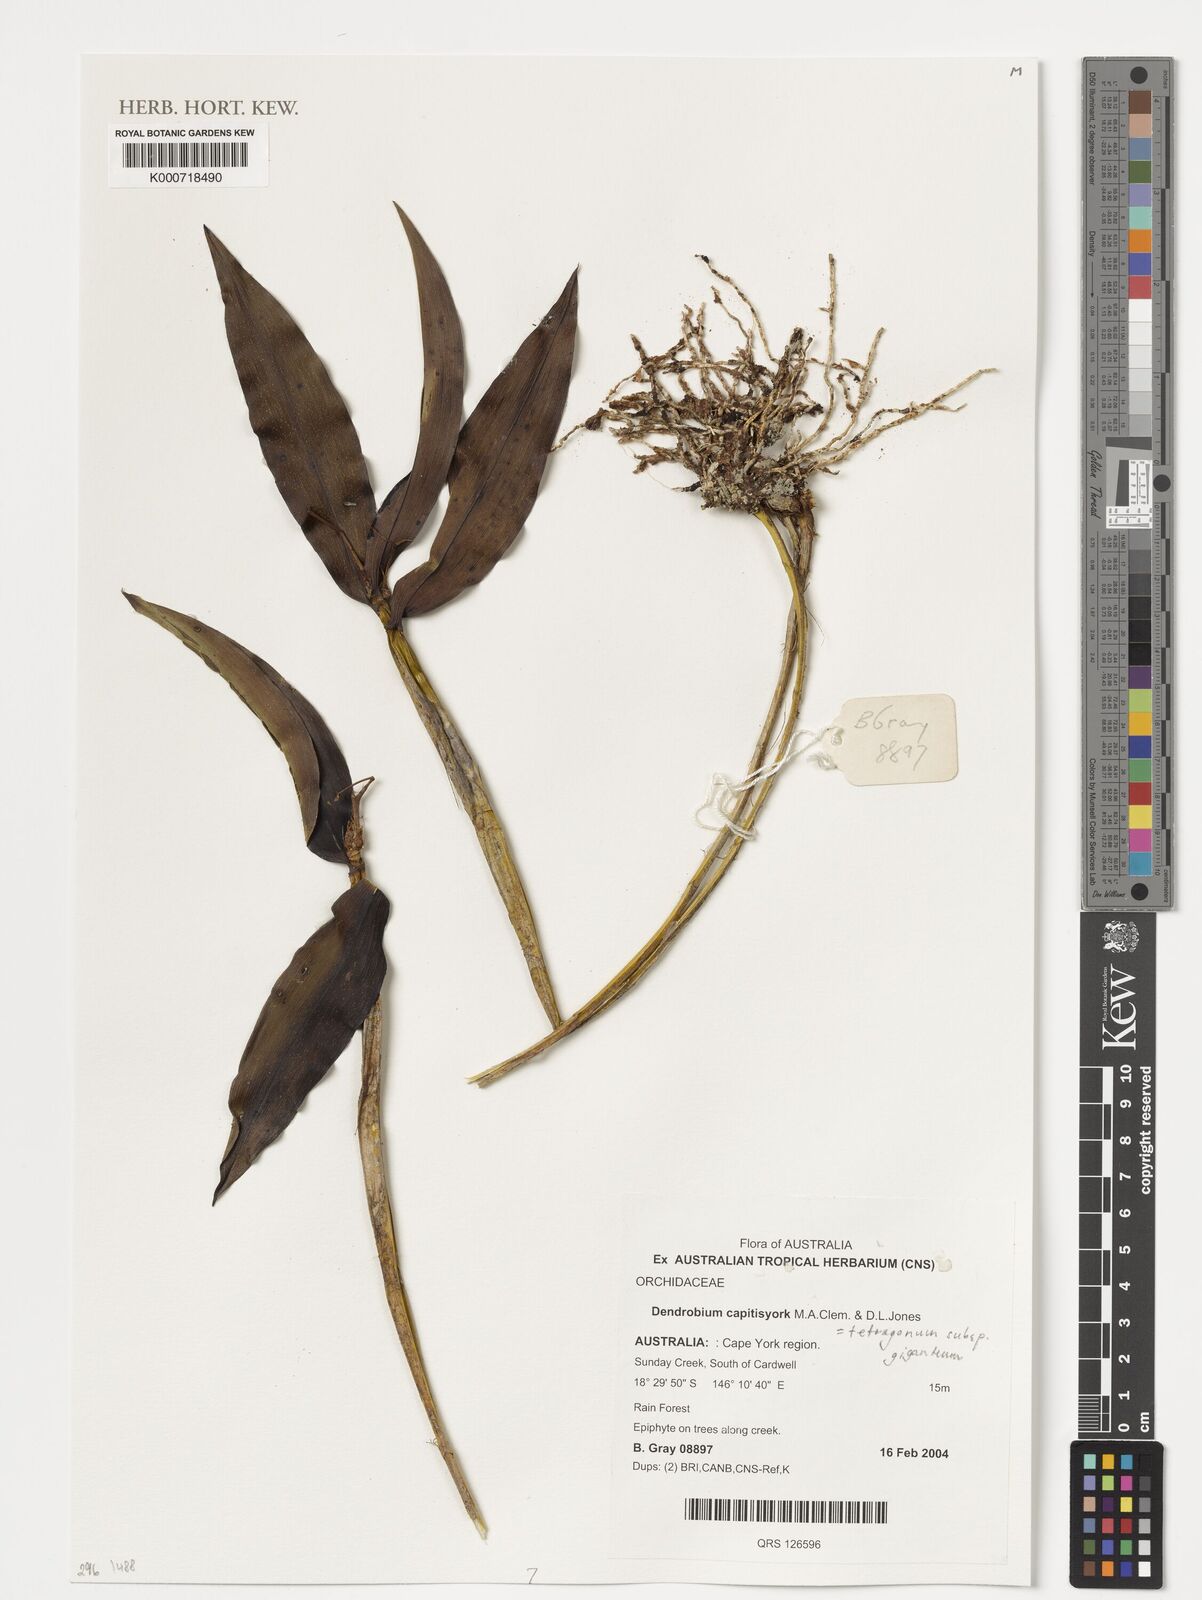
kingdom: Plantae
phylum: Tracheophyta
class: Liliopsida
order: Asparagales
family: Orchidaceae
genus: Dendrobium
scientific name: Dendrobium tetragonum
